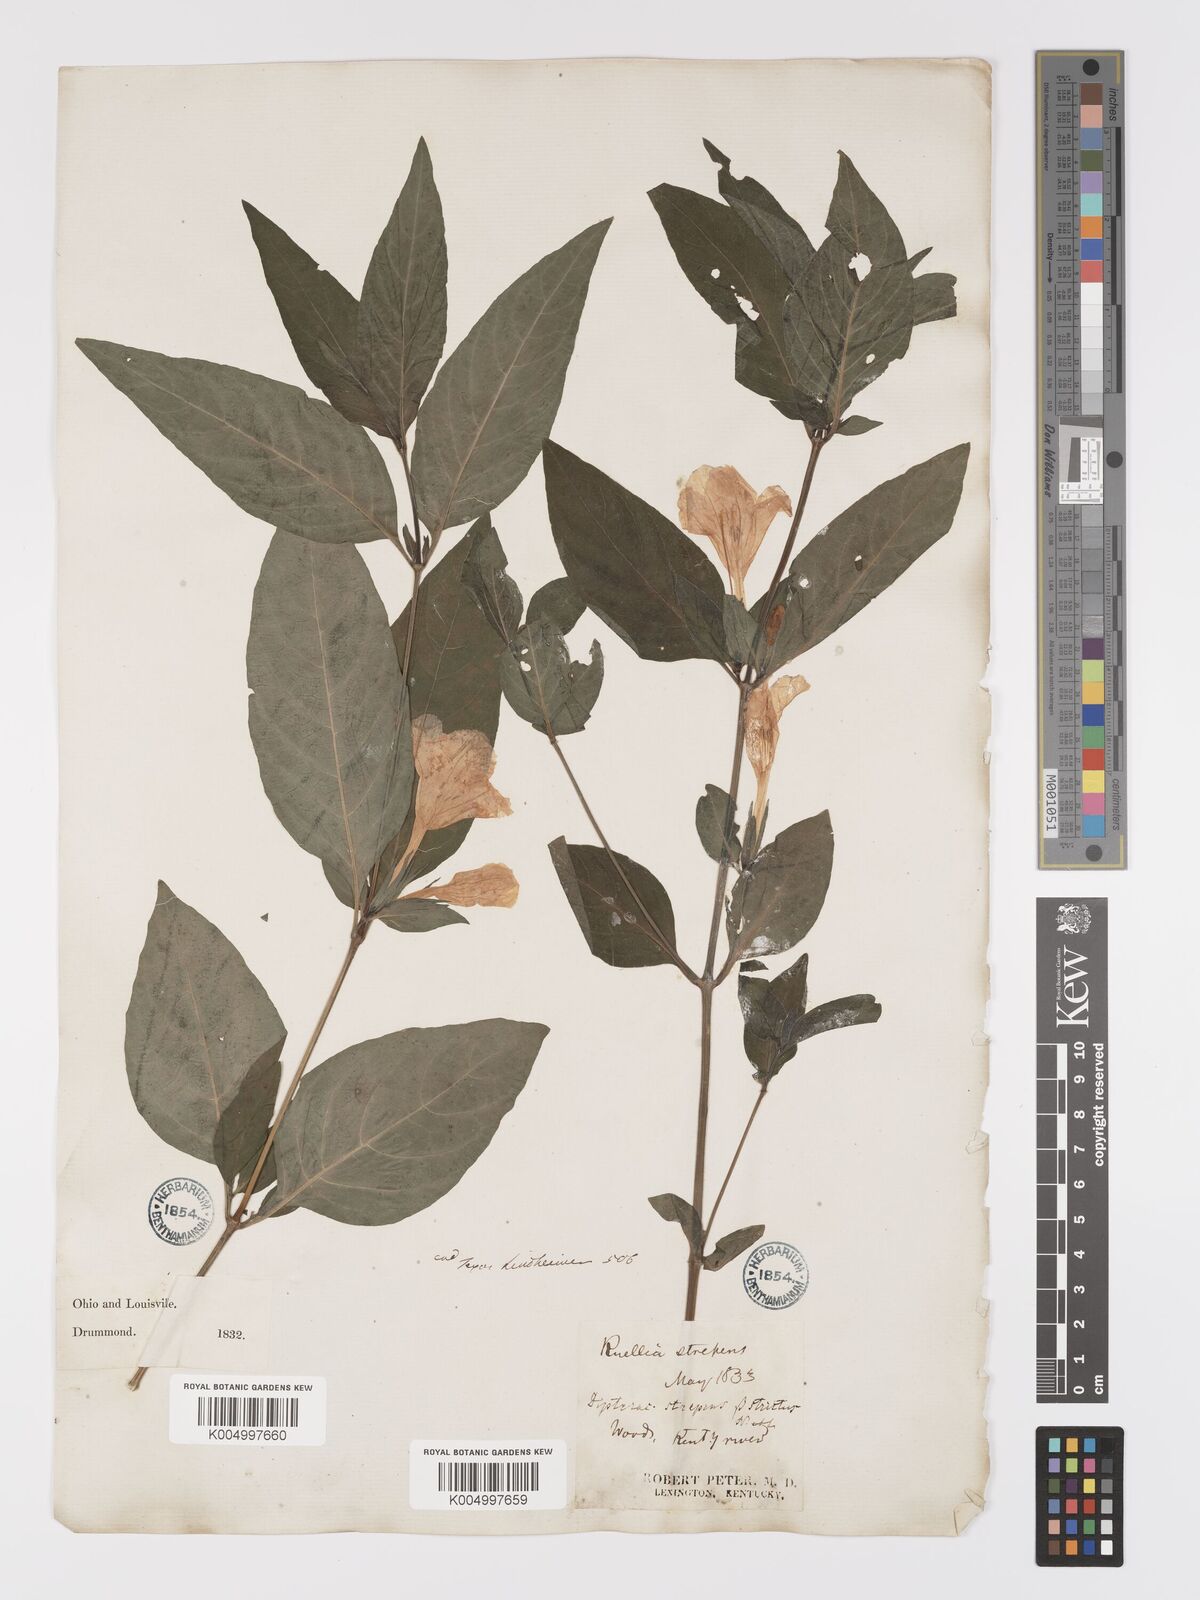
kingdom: Plantae
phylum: Tracheophyta
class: Magnoliopsida
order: Lamiales
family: Acanthaceae
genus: Ruellia
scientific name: Ruellia strepens
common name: Limestone wild petunia
